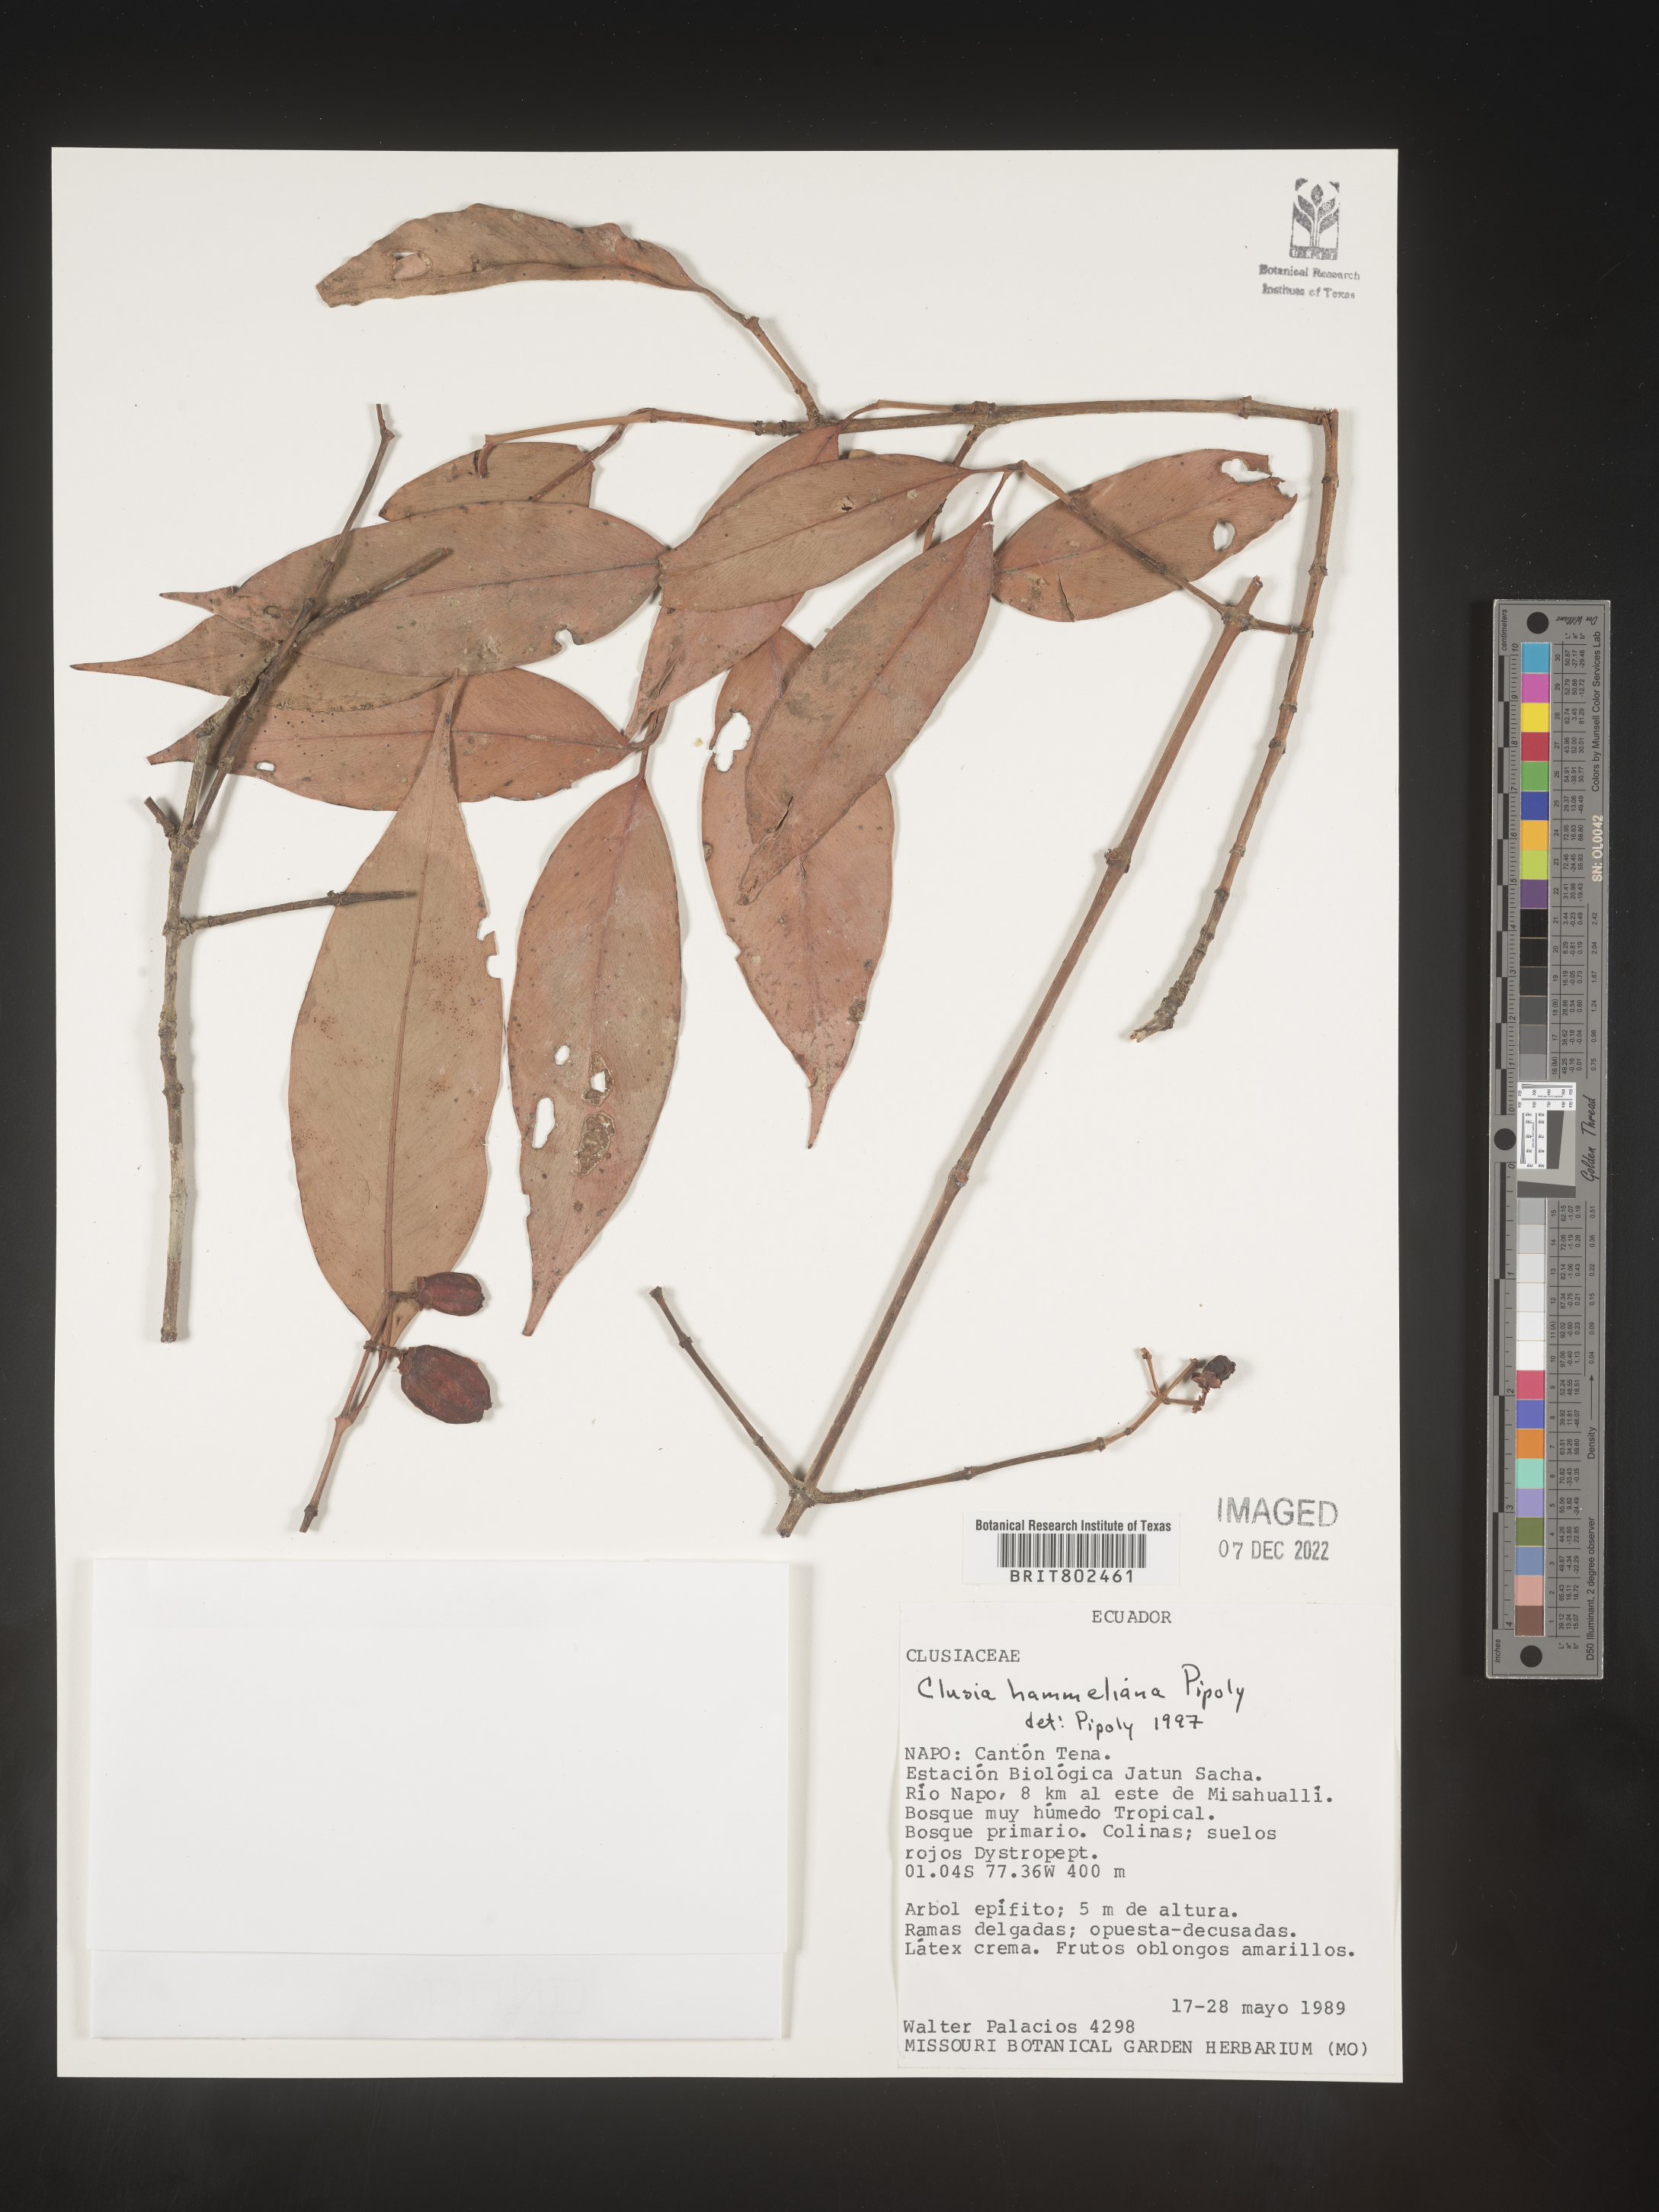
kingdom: Plantae
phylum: Tracheophyta
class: Magnoliopsida
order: Malpighiales
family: Clusiaceae
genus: Clusia
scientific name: Clusia hammeliana
